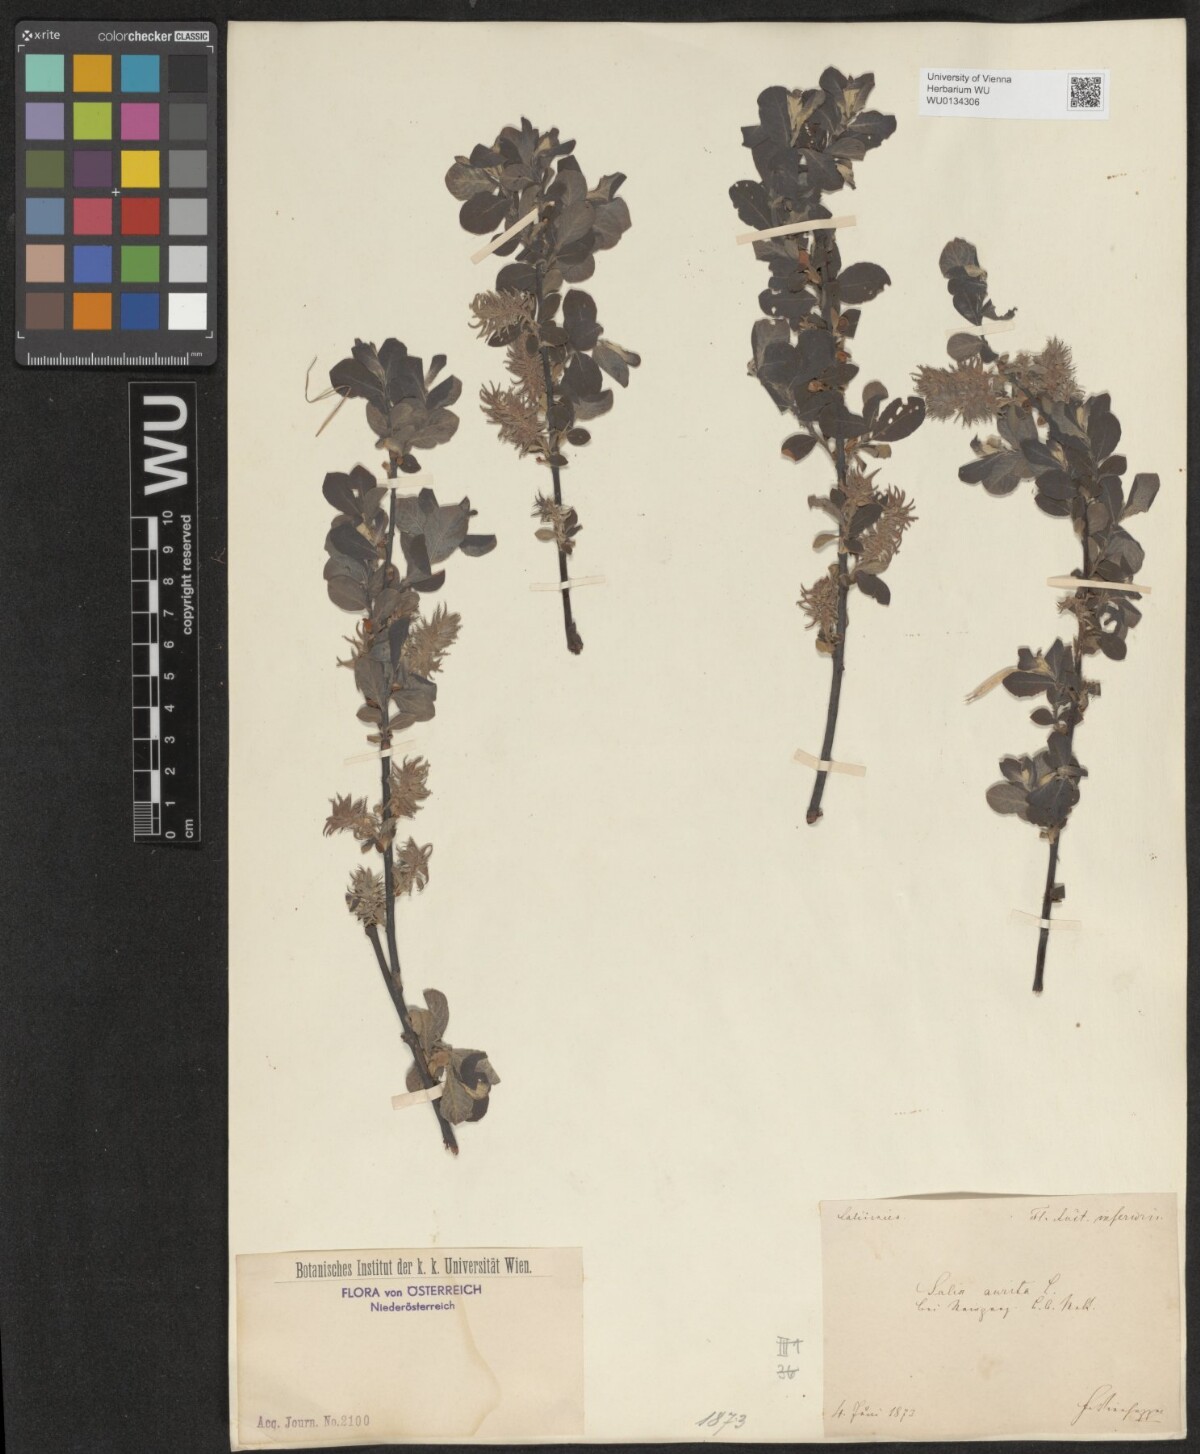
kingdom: Plantae
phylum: Tracheophyta
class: Magnoliopsida
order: Malpighiales
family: Salicaceae
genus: Salix
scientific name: Salix aurita
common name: Eared willow
